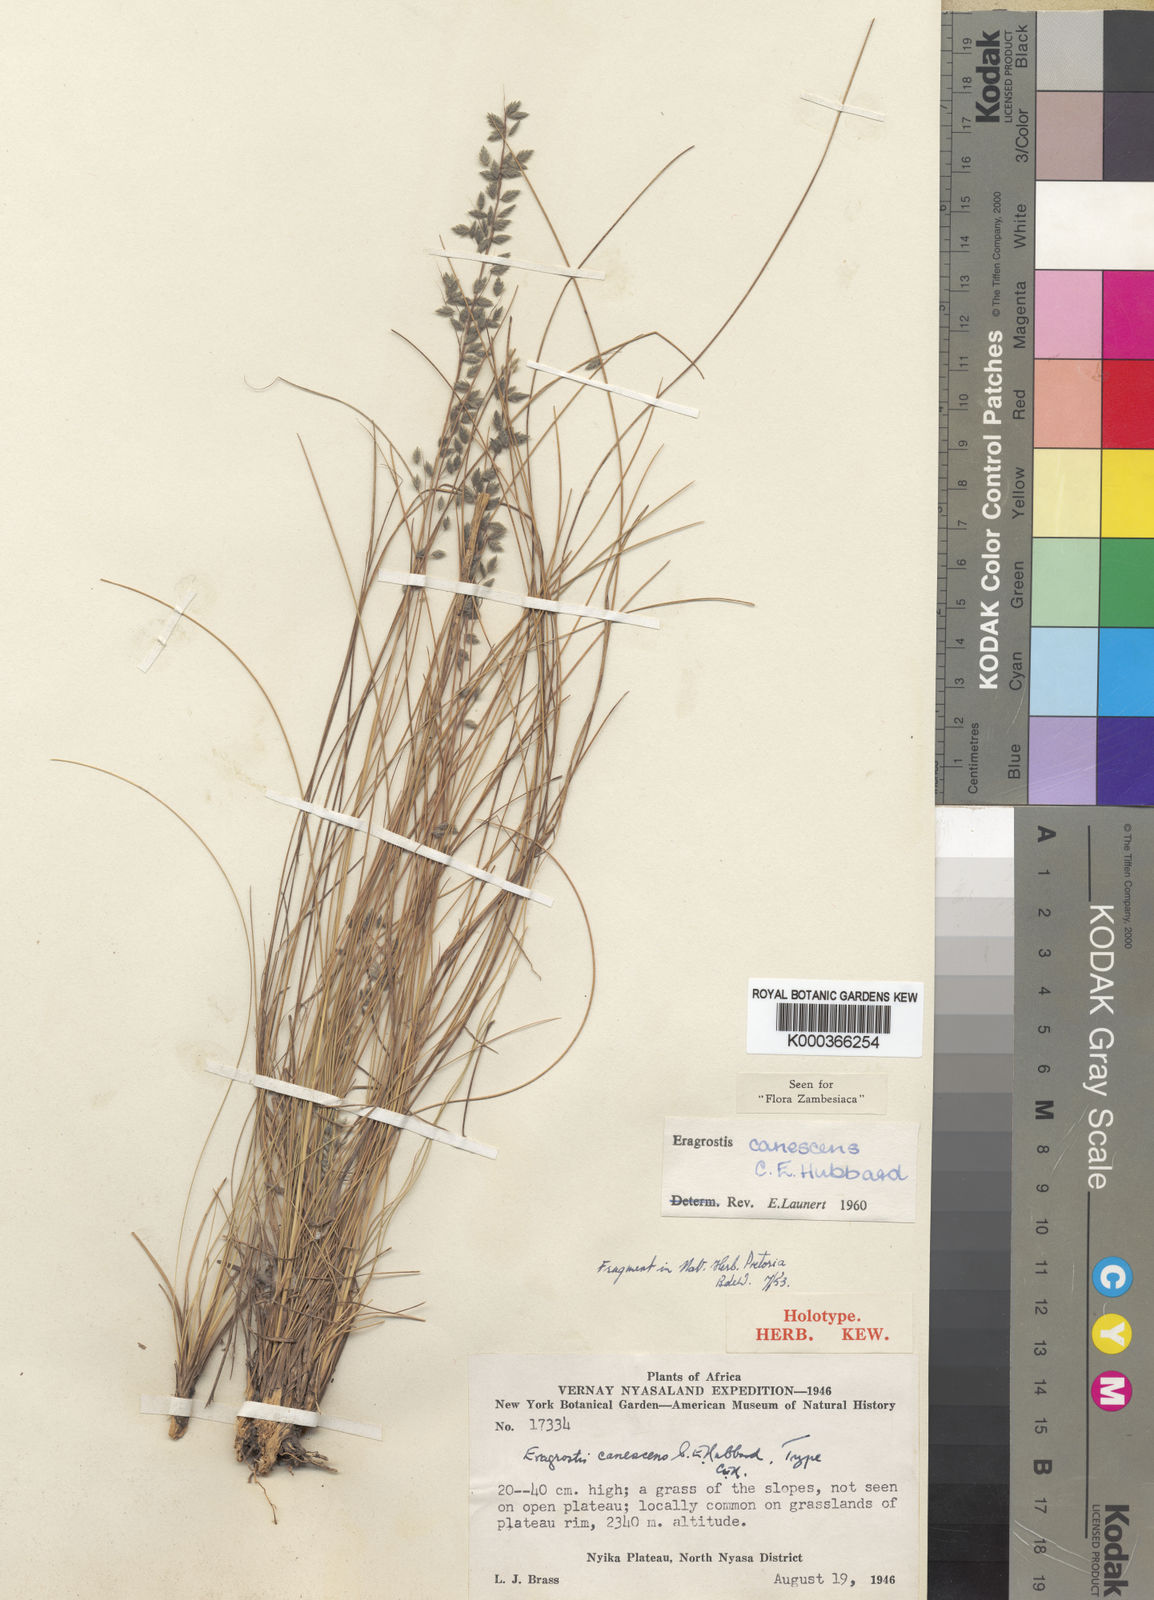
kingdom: Plantae
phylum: Tracheophyta
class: Liliopsida
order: Poales
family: Poaceae
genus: Eragrostis
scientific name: Eragrostis canescens
